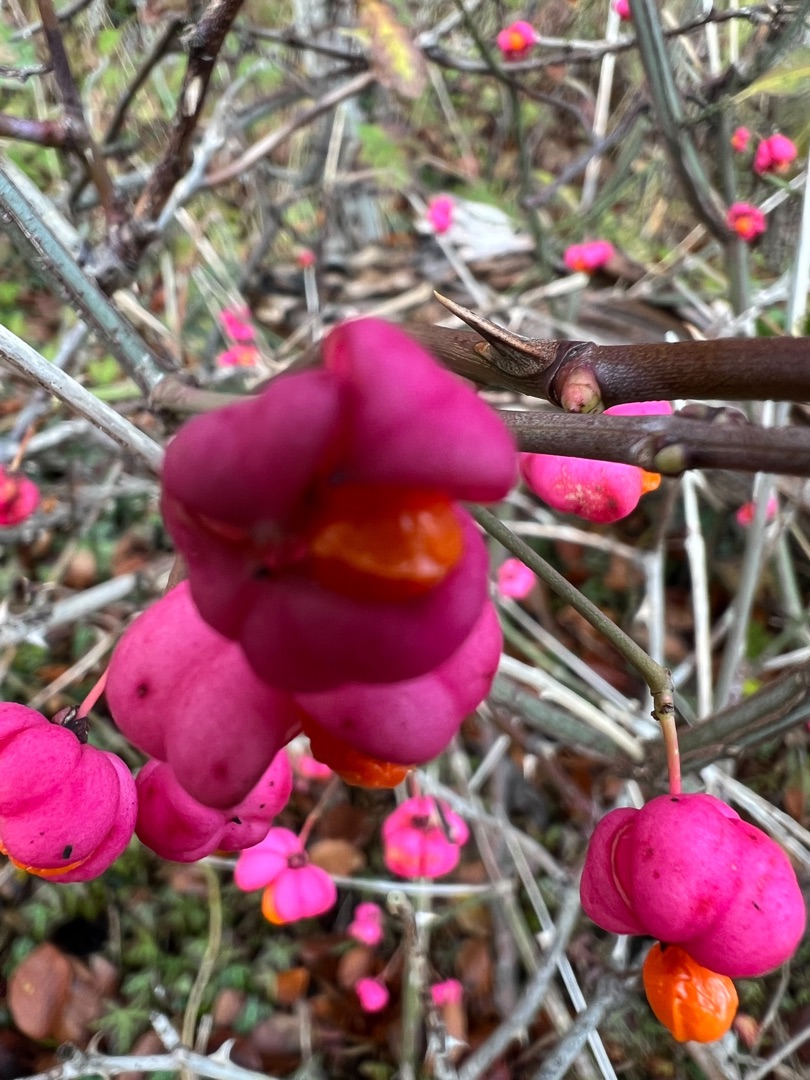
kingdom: Plantae
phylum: Tracheophyta
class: Magnoliopsida
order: Celastrales
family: Celastraceae
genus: Euonymus
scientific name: Euonymus europaeus
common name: Benved
